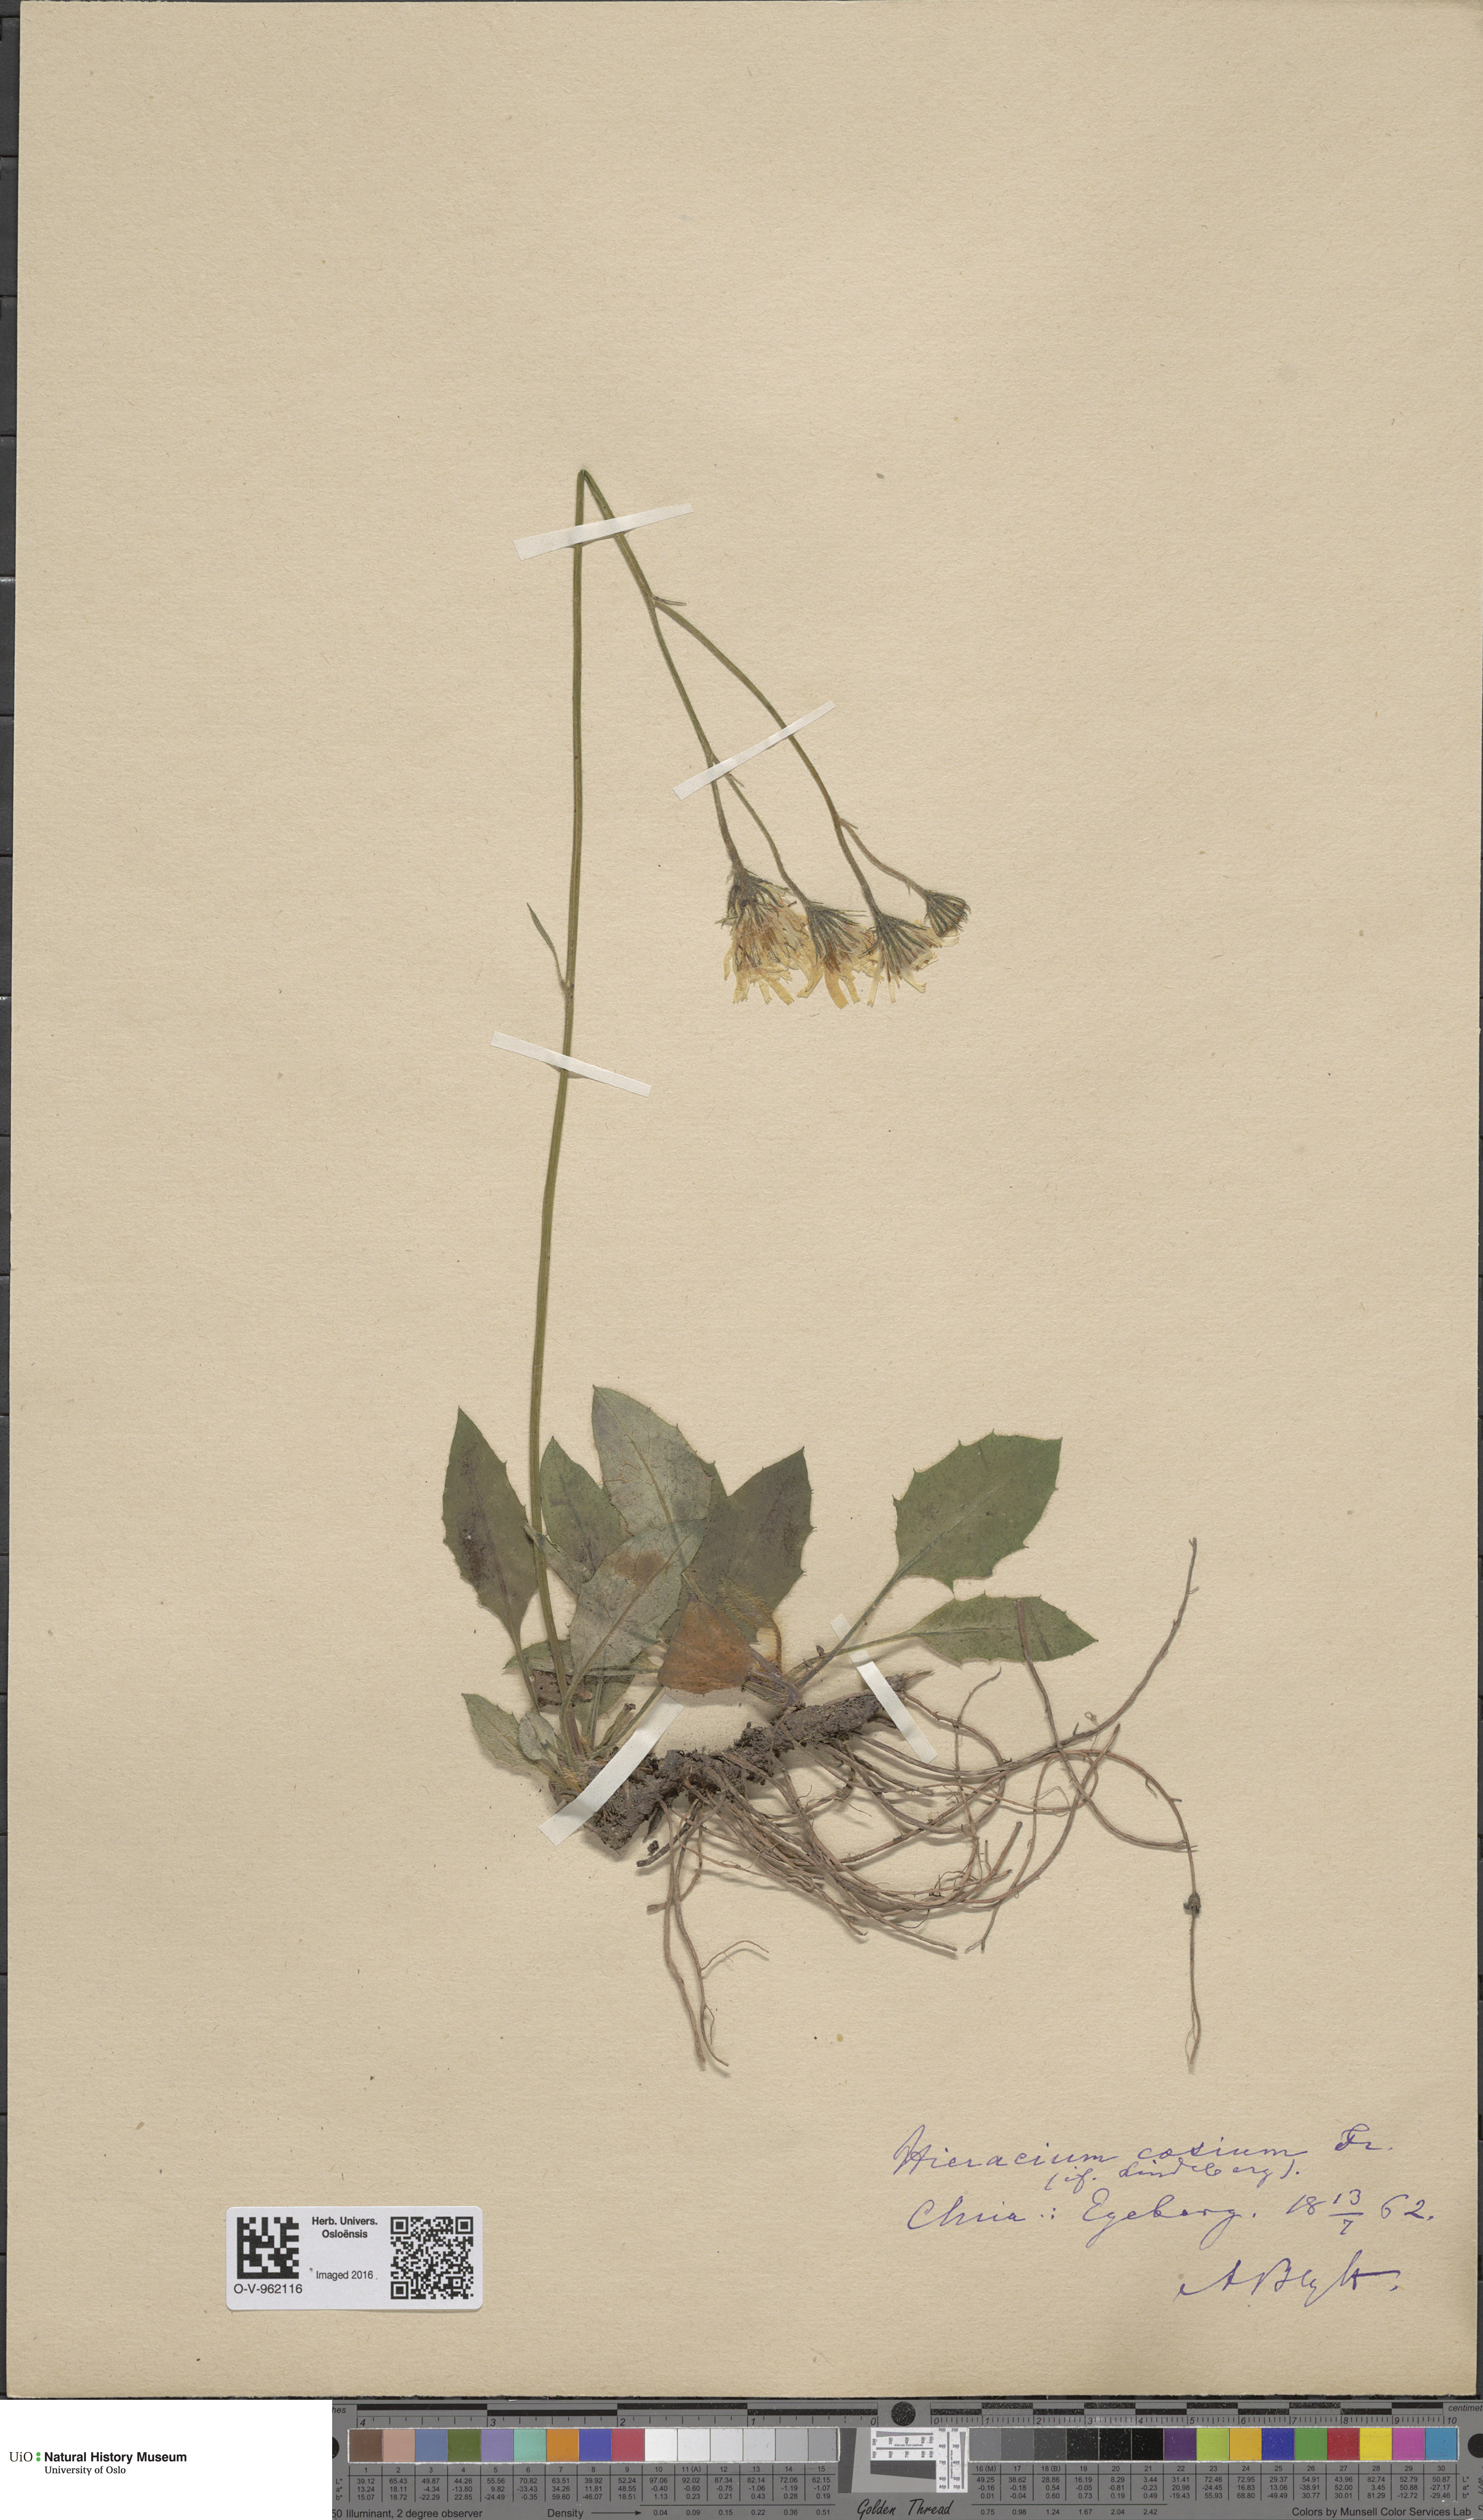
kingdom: Plantae
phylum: Tracheophyta
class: Magnoliopsida
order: Asterales
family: Asteraceae
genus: Hieracium
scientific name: Hieracium caesium
